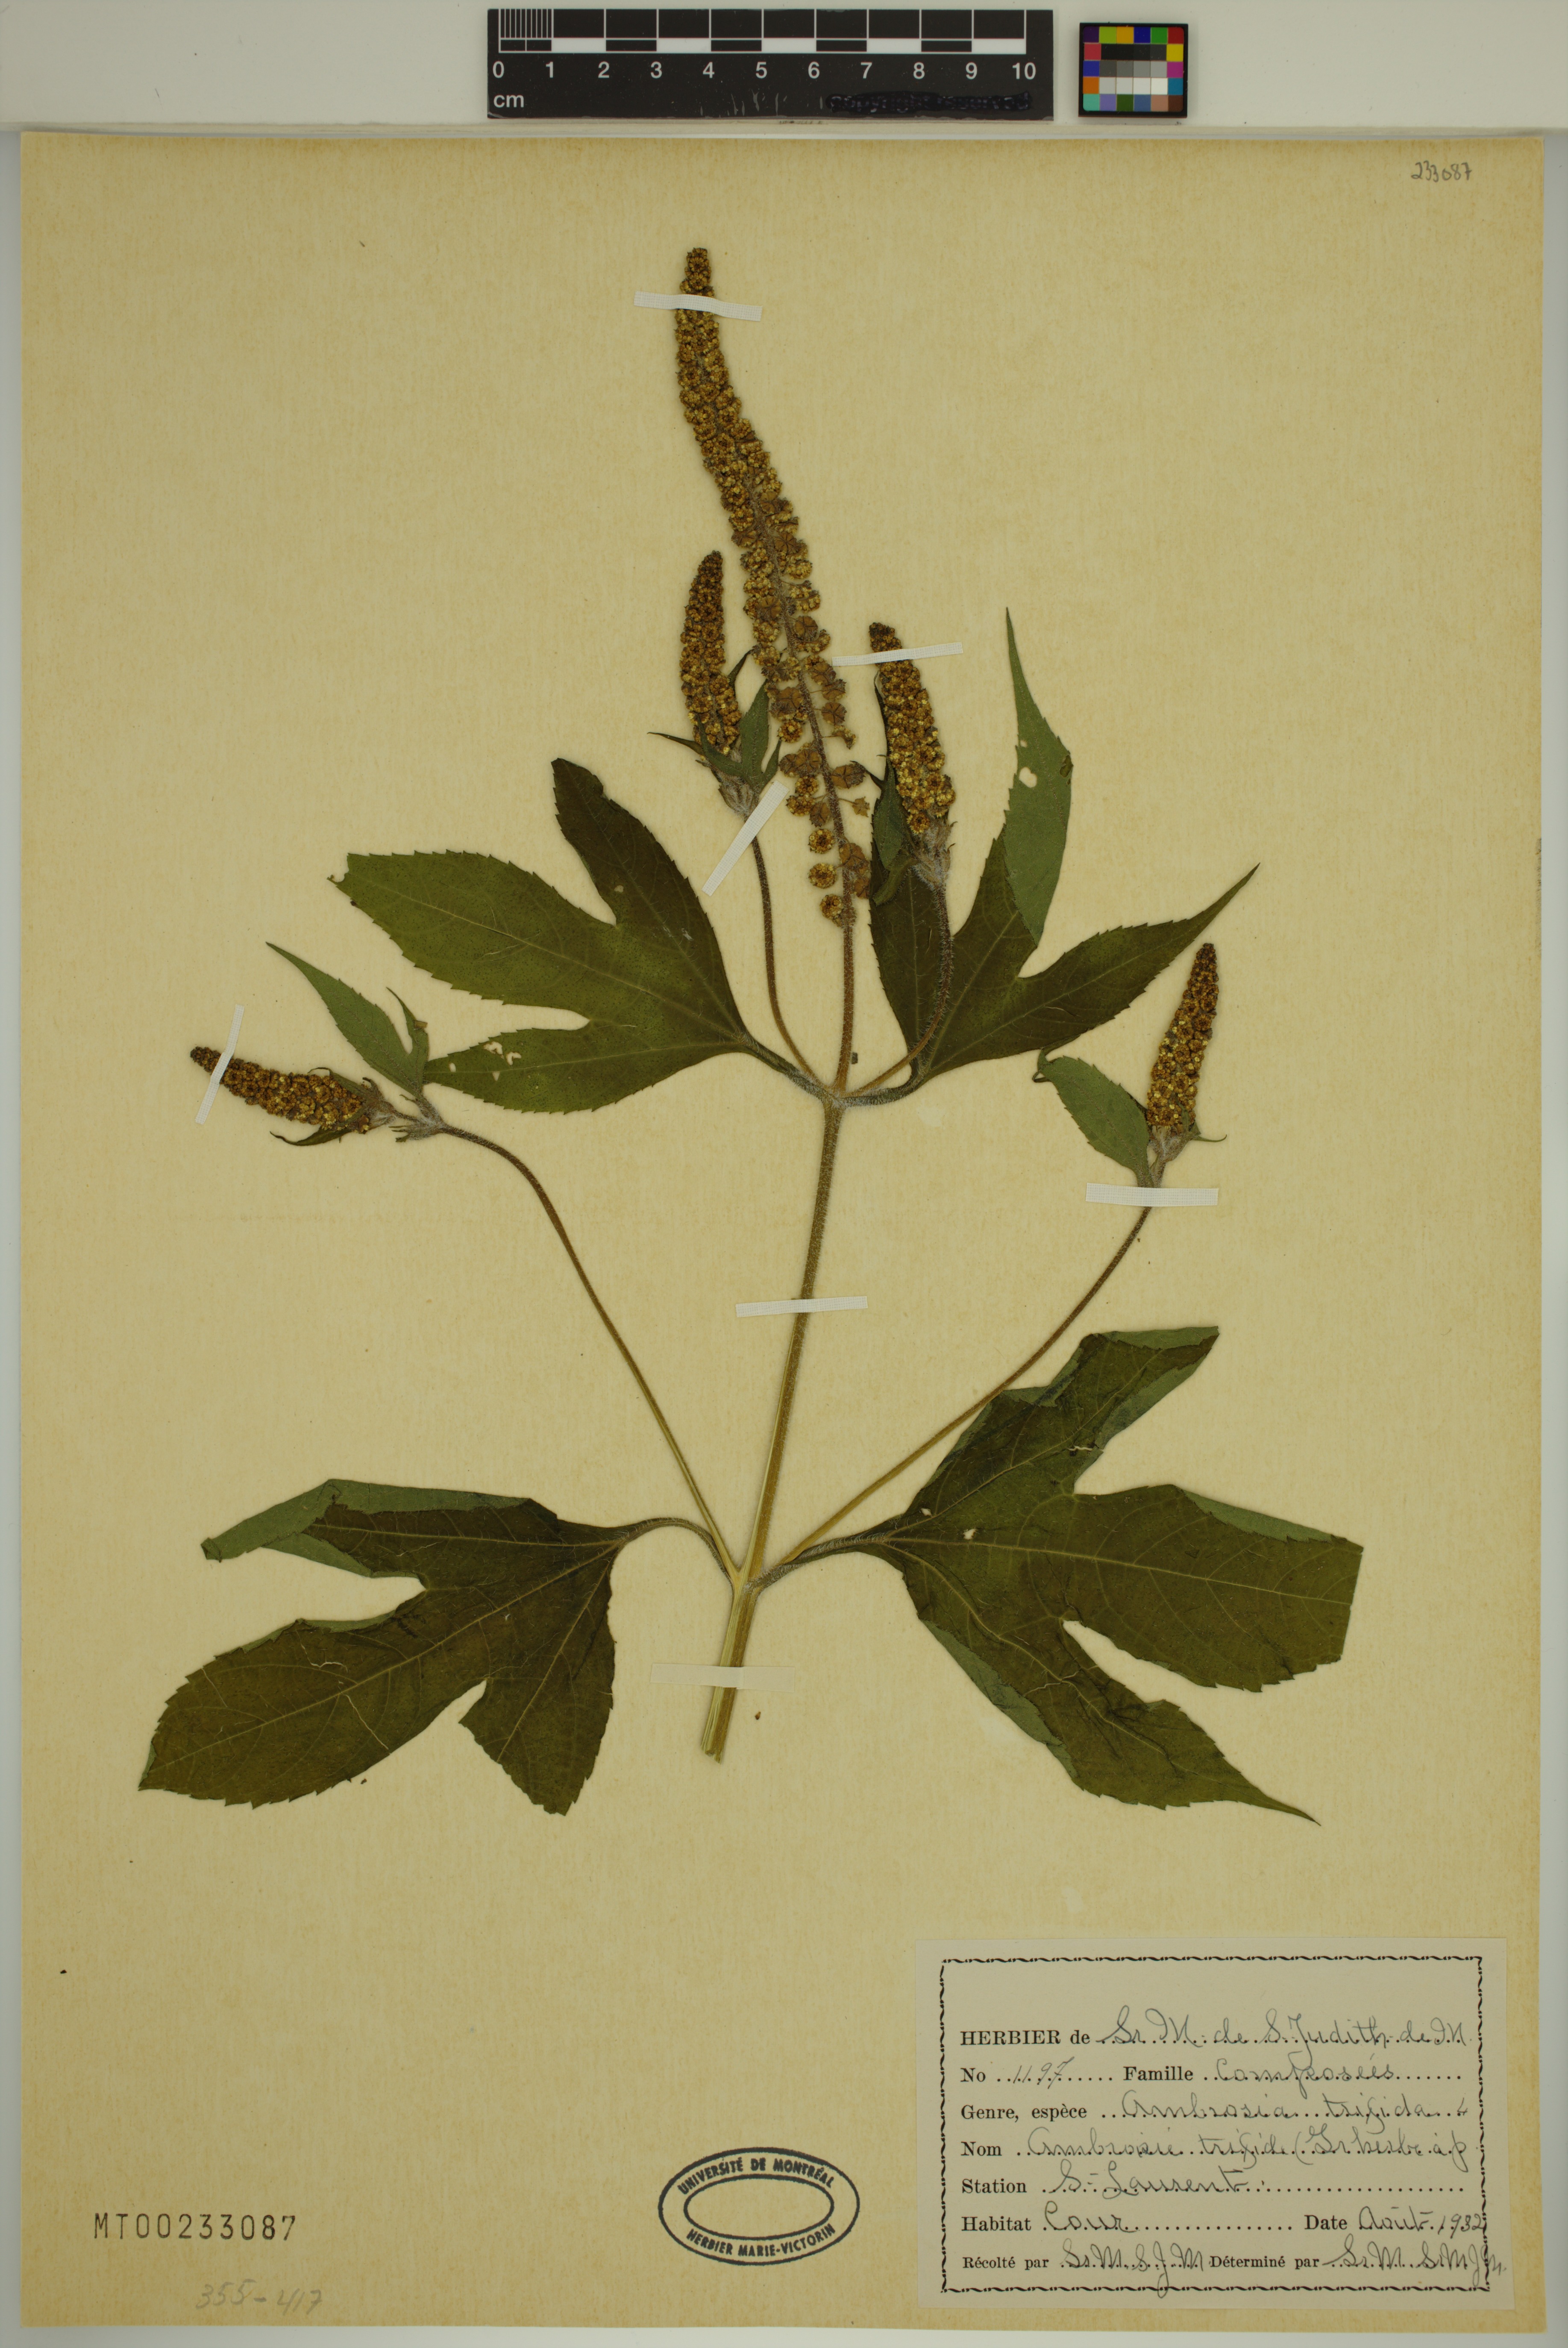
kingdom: Plantae
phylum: Tracheophyta
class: Magnoliopsida
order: Asterales
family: Asteraceae
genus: Ambrosia
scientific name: Ambrosia trifida
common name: Giant ragweed
